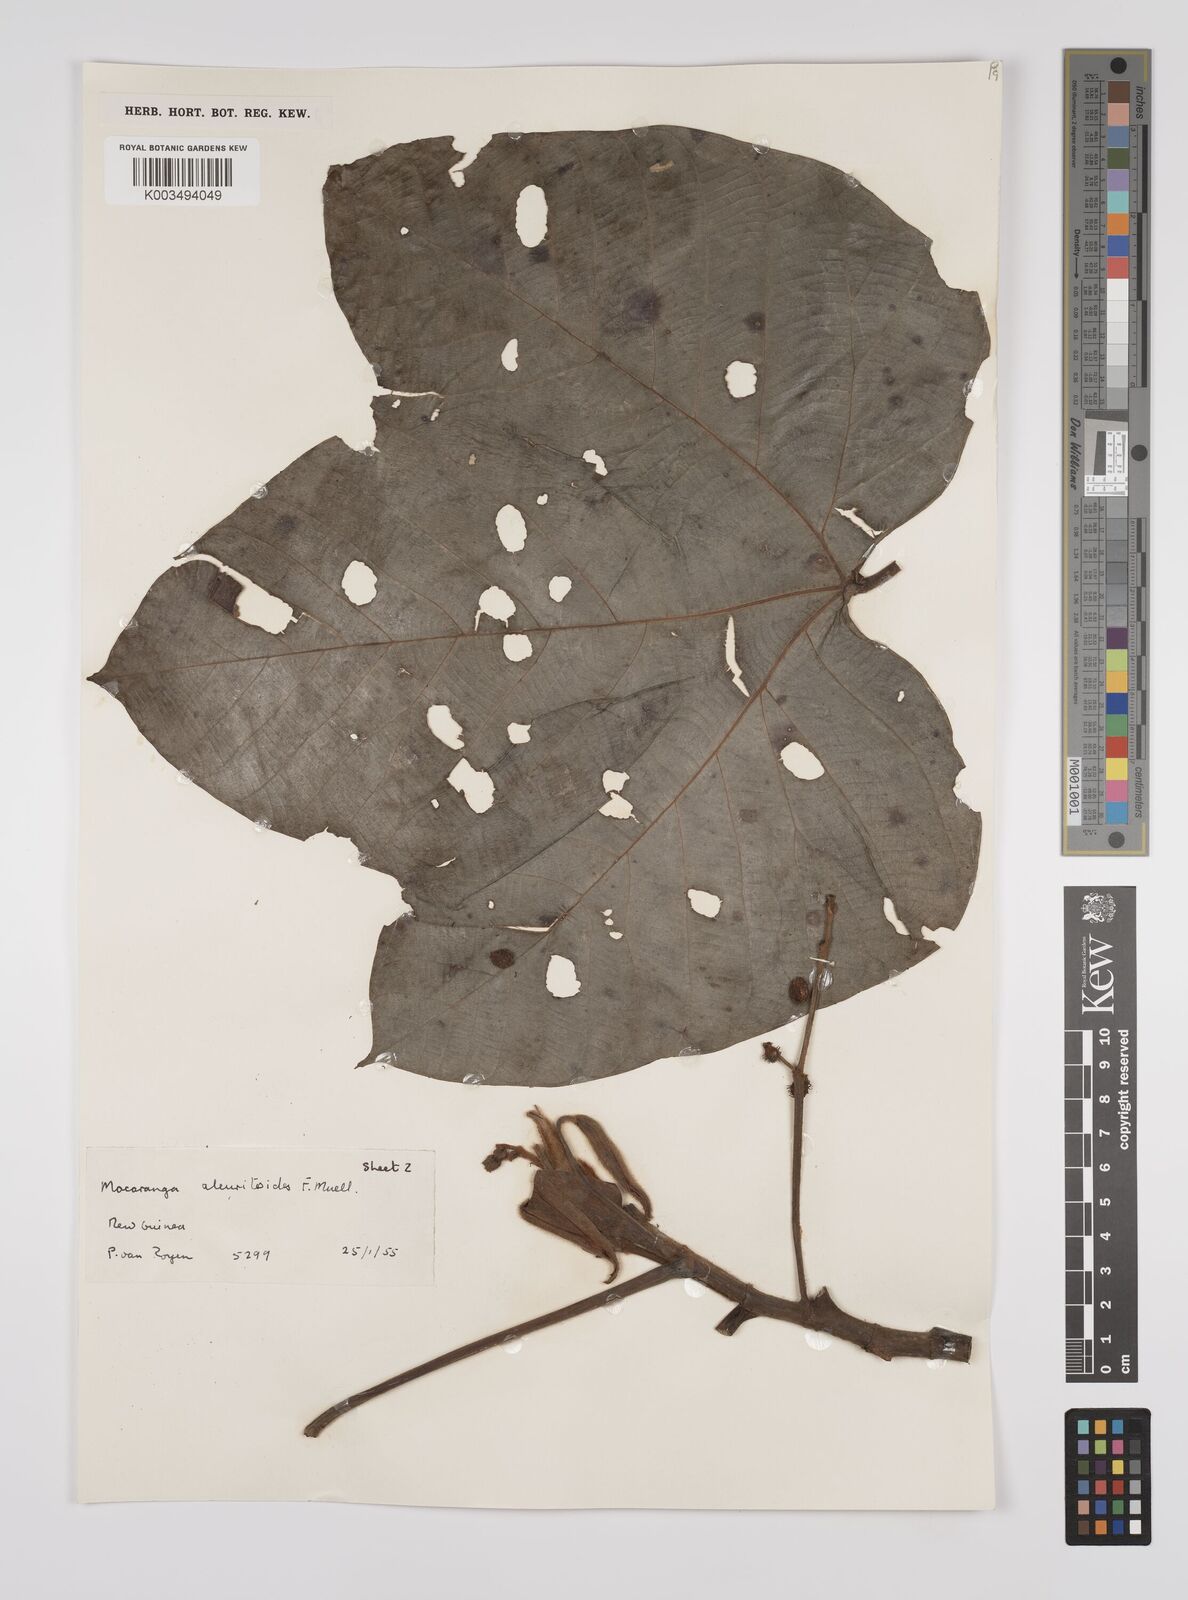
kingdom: Plantae
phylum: Tracheophyta
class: Magnoliopsida
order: Malpighiales
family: Euphorbiaceae
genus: Macaranga
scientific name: Macaranga aleuritoides
